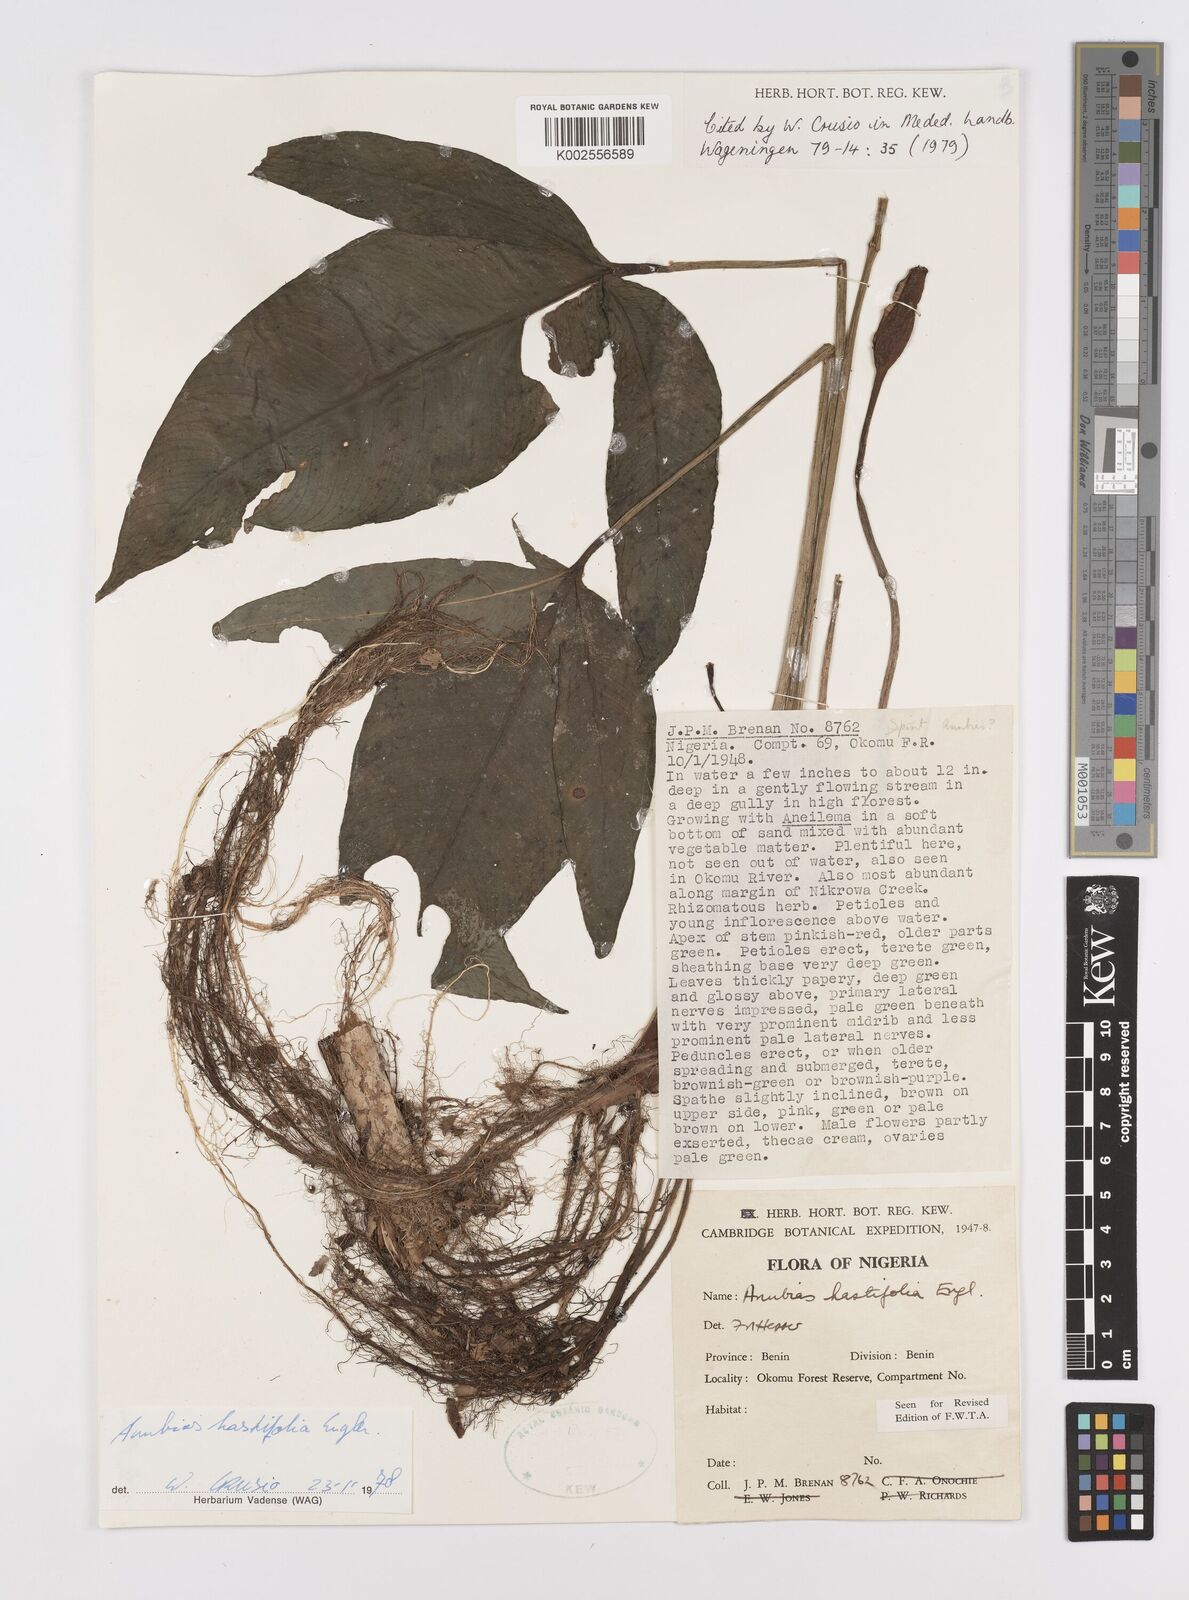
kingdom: Plantae
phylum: Tracheophyta
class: Liliopsida
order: Alismatales
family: Araceae
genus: Anubias
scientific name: Anubias hastifolia
